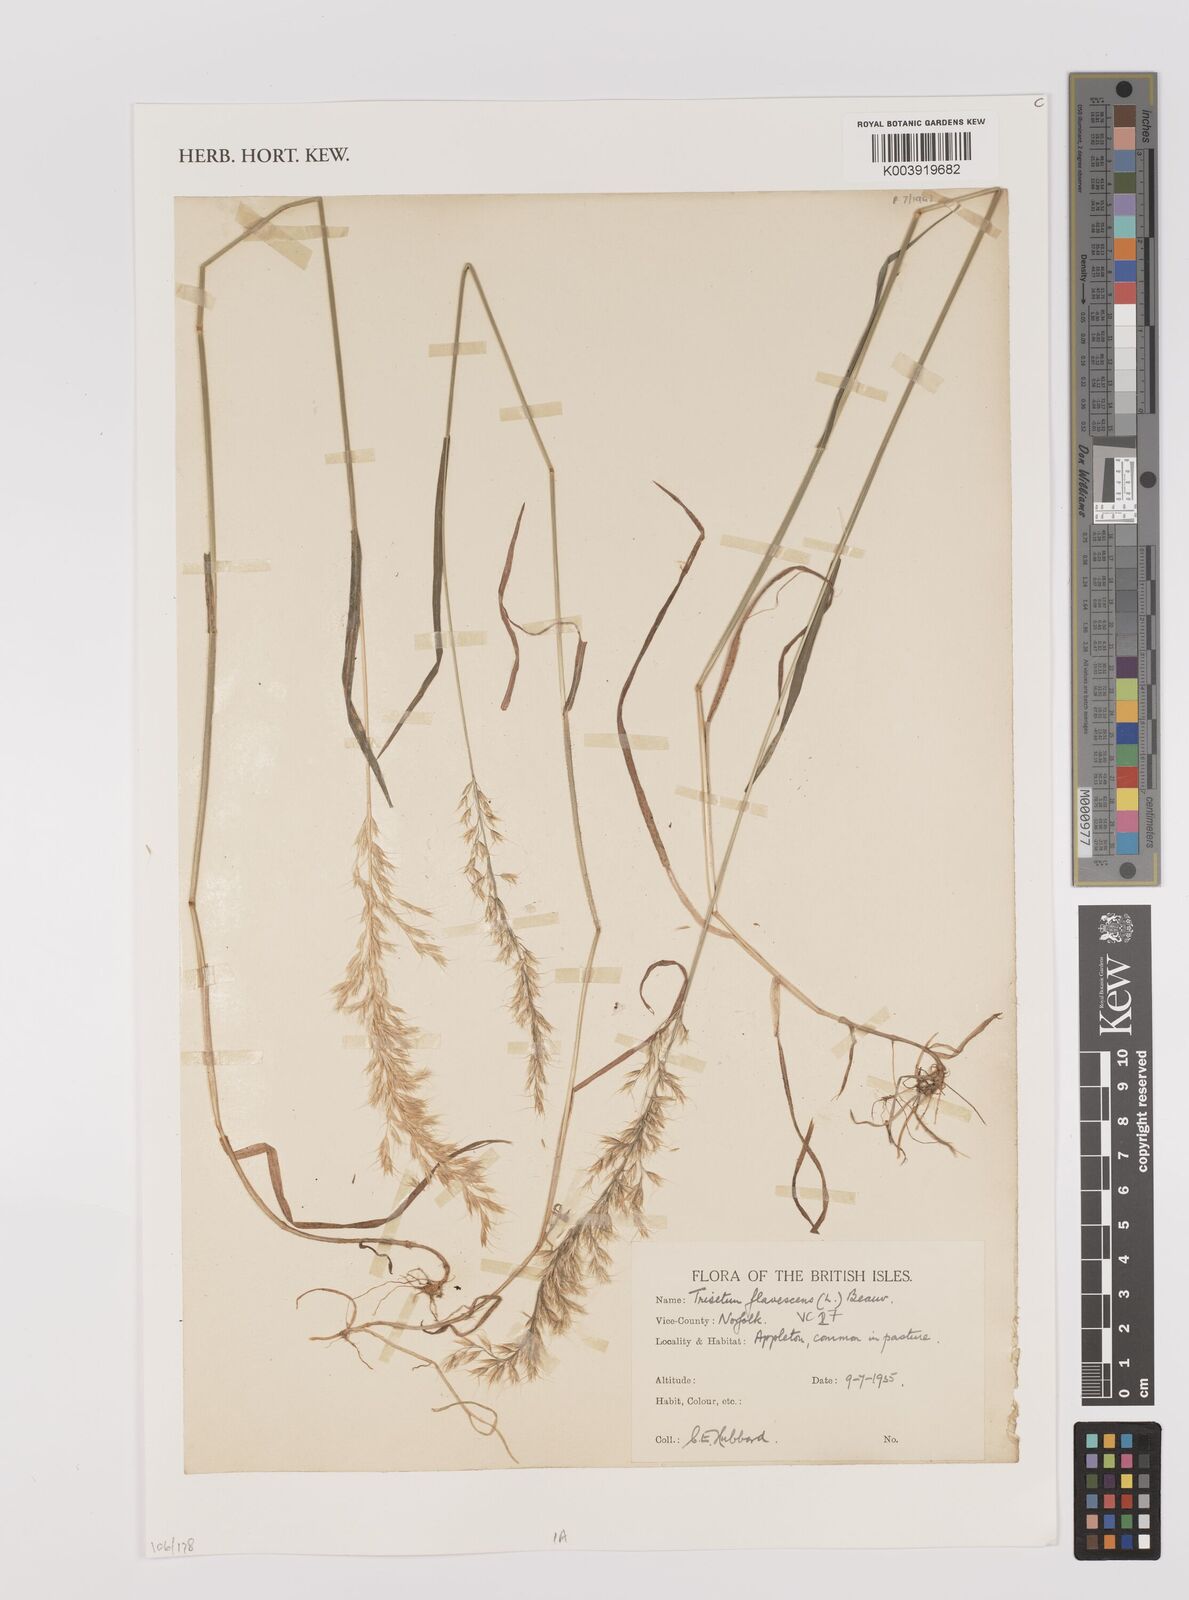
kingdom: Plantae
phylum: Tracheophyta
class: Liliopsida
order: Poales
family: Poaceae
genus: Trisetum
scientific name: Trisetum flavescens
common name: Yellow oat-grass
